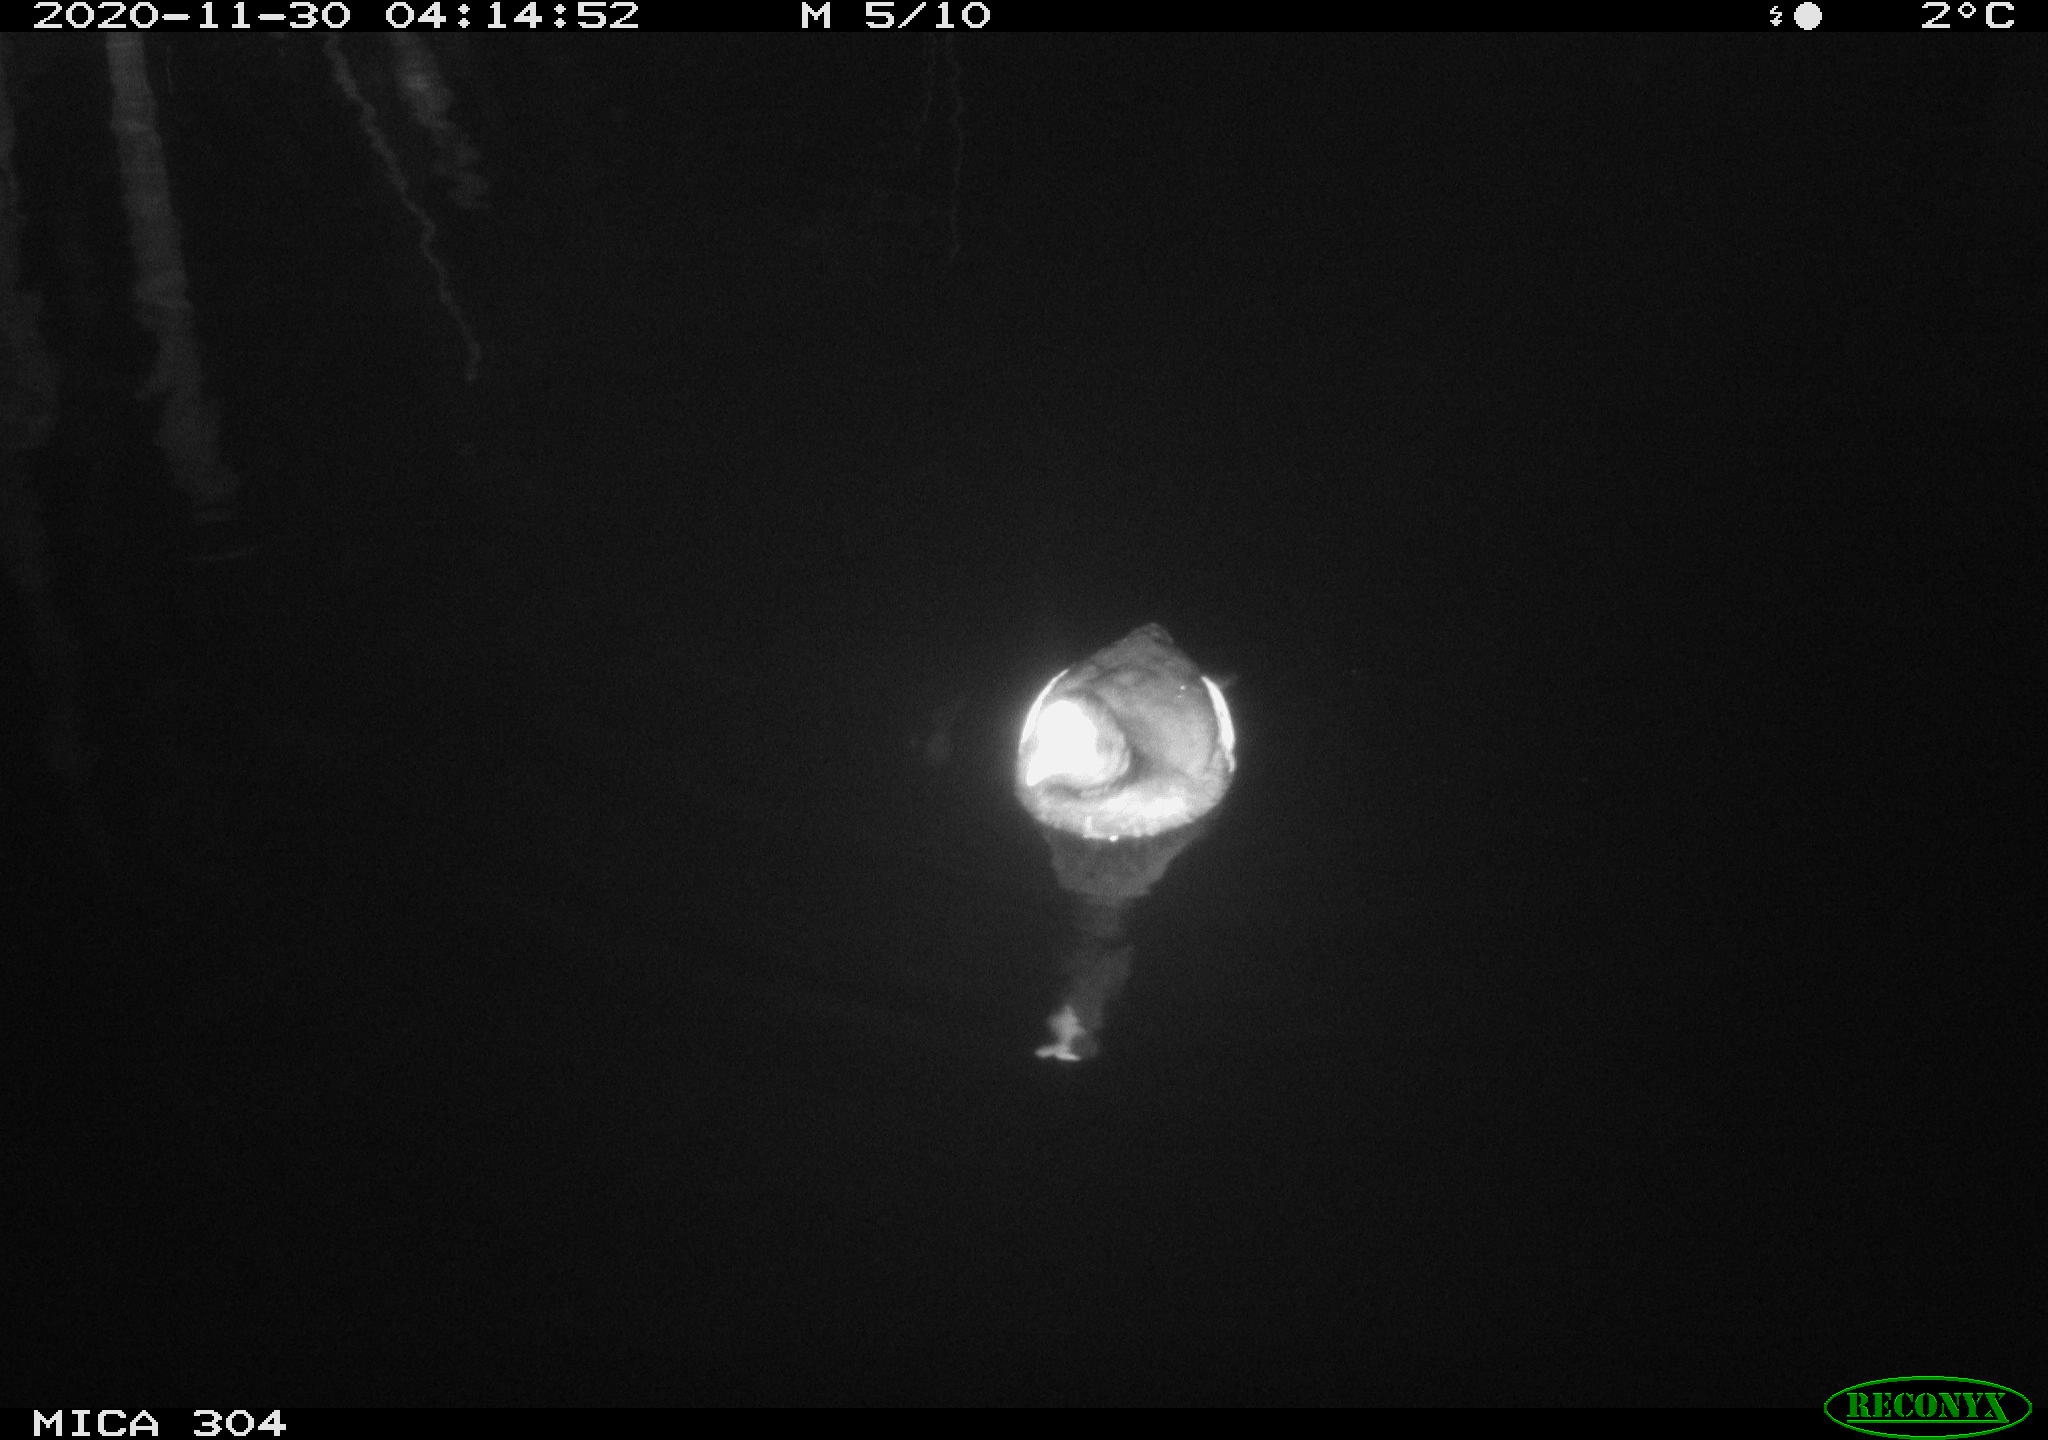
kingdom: Animalia
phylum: Chordata
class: Aves
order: Gruiformes
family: Rallidae
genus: Gallinula
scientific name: Gallinula chloropus
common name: Common moorhen
